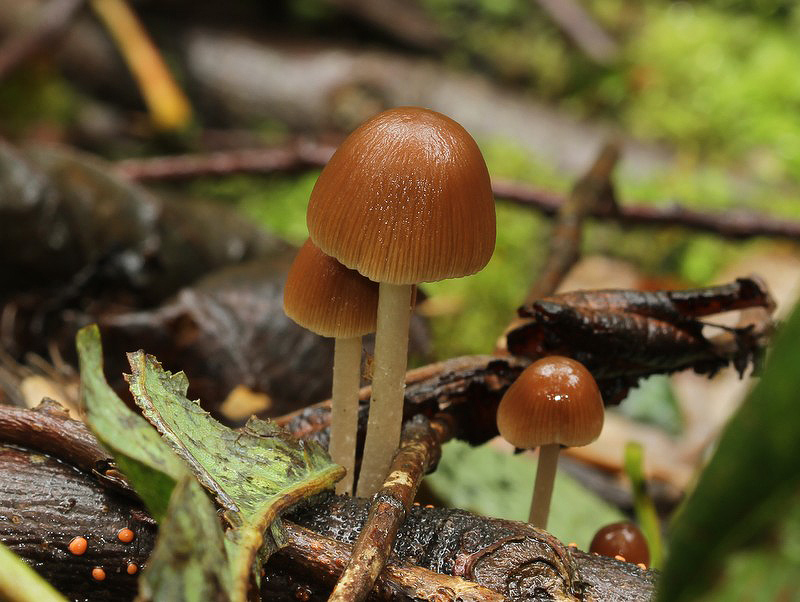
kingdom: Fungi
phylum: Basidiomycota
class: Agaricomycetes
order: Agaricales
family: Psathyrellaceae
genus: Psathyrella
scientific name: Psathyrella microrhiza
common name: rod-mørkhat
